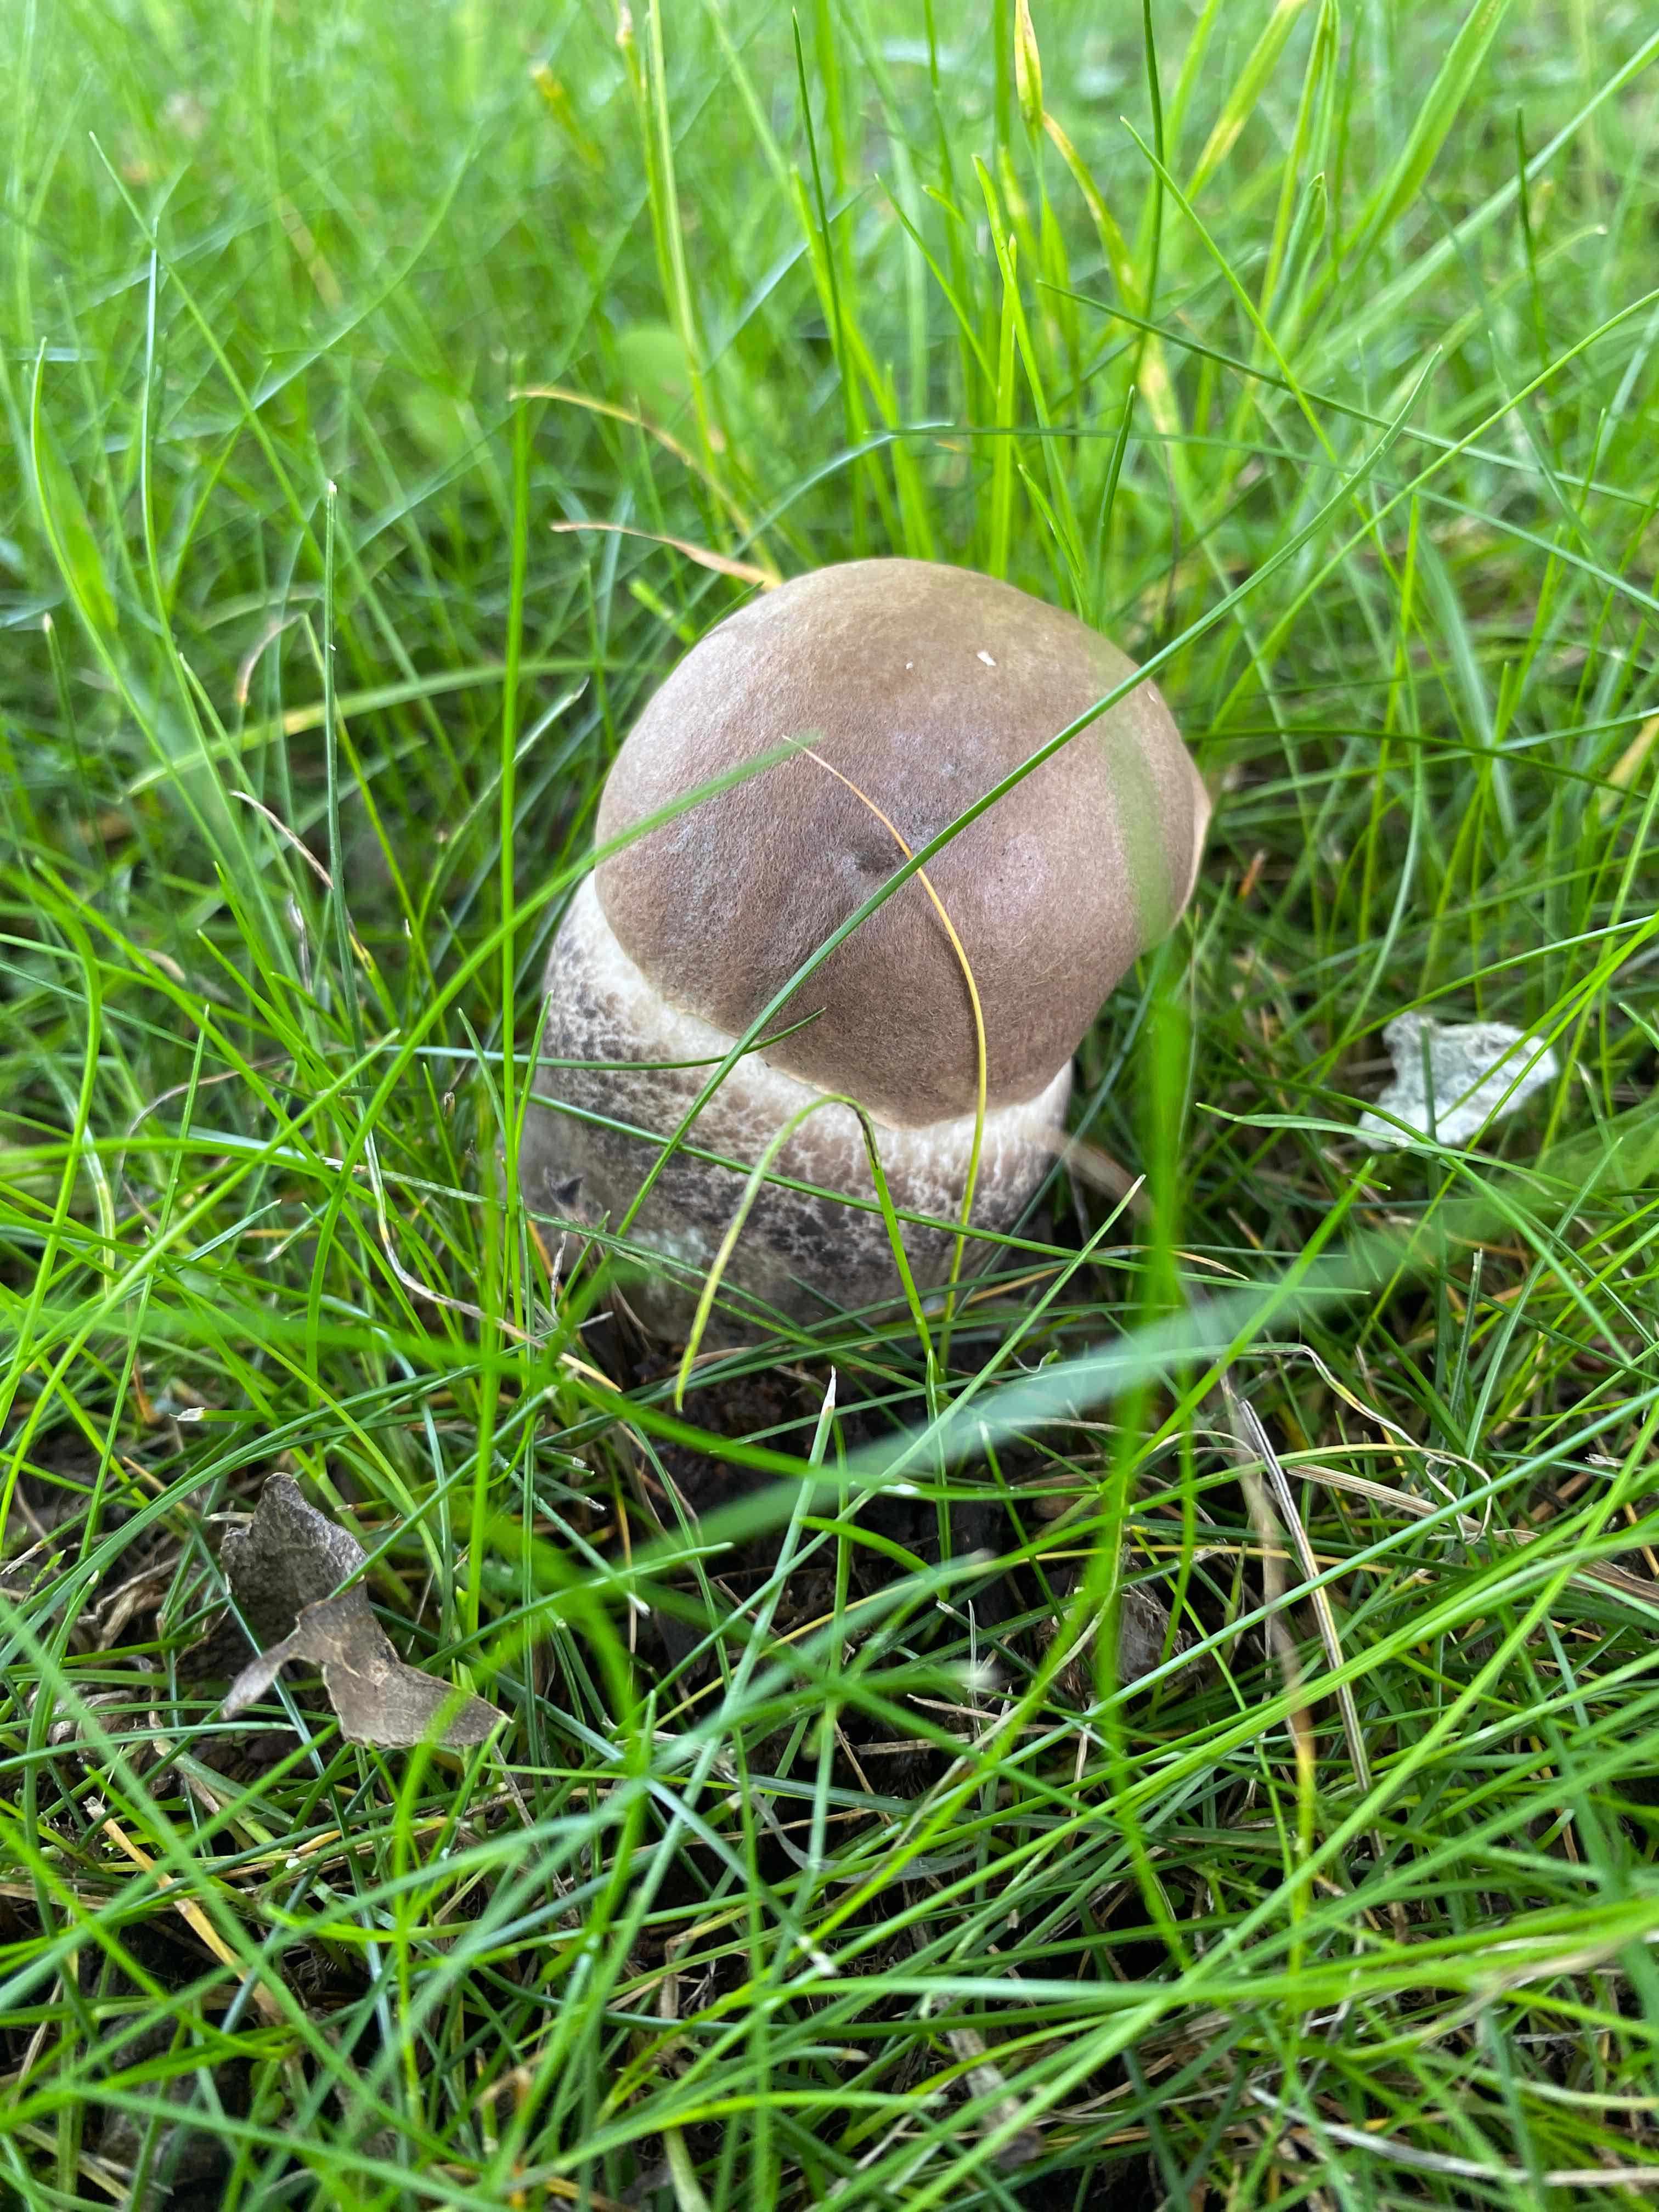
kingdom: Fungi
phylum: Basidiomycota
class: Agaricomycetes
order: Boletales
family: Boletaceae
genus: Leccinum
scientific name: Leccinum duriusculum
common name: poppel-skælrørhat
